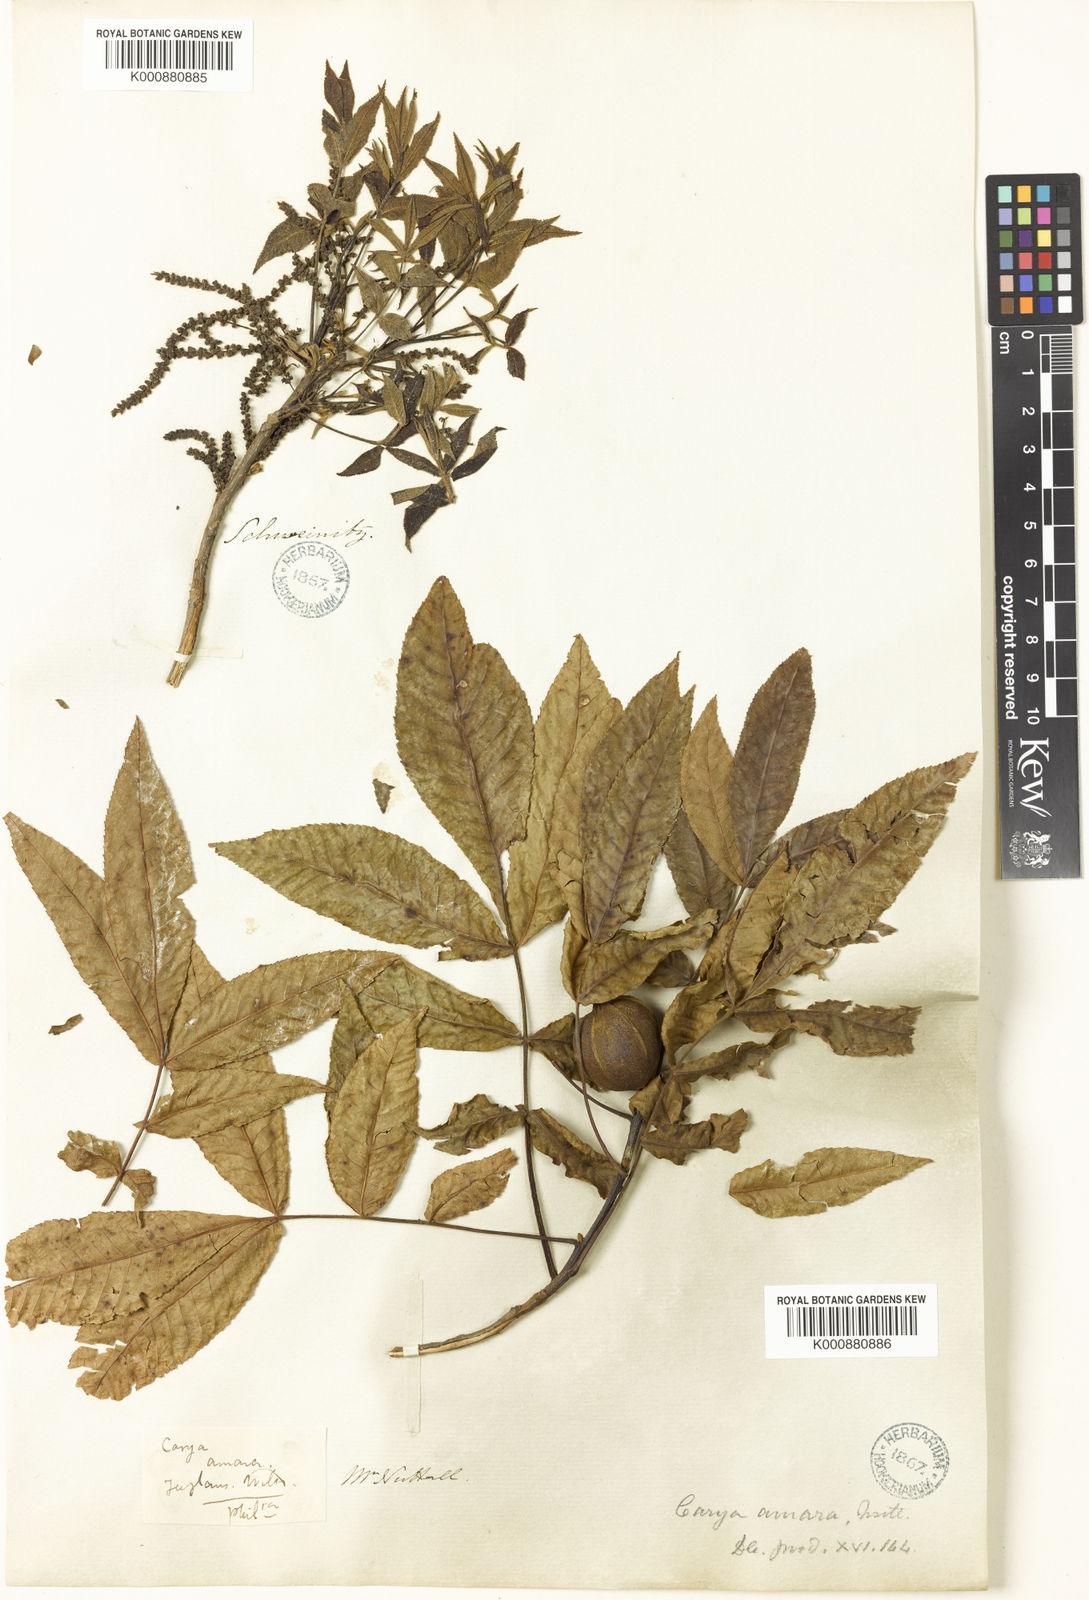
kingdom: Plantae
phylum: Tracheophyta
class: Magnoliopsida
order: Fagales
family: Juglandaceae
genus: Carya
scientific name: Carya cordiformis
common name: Bitternut hickory
